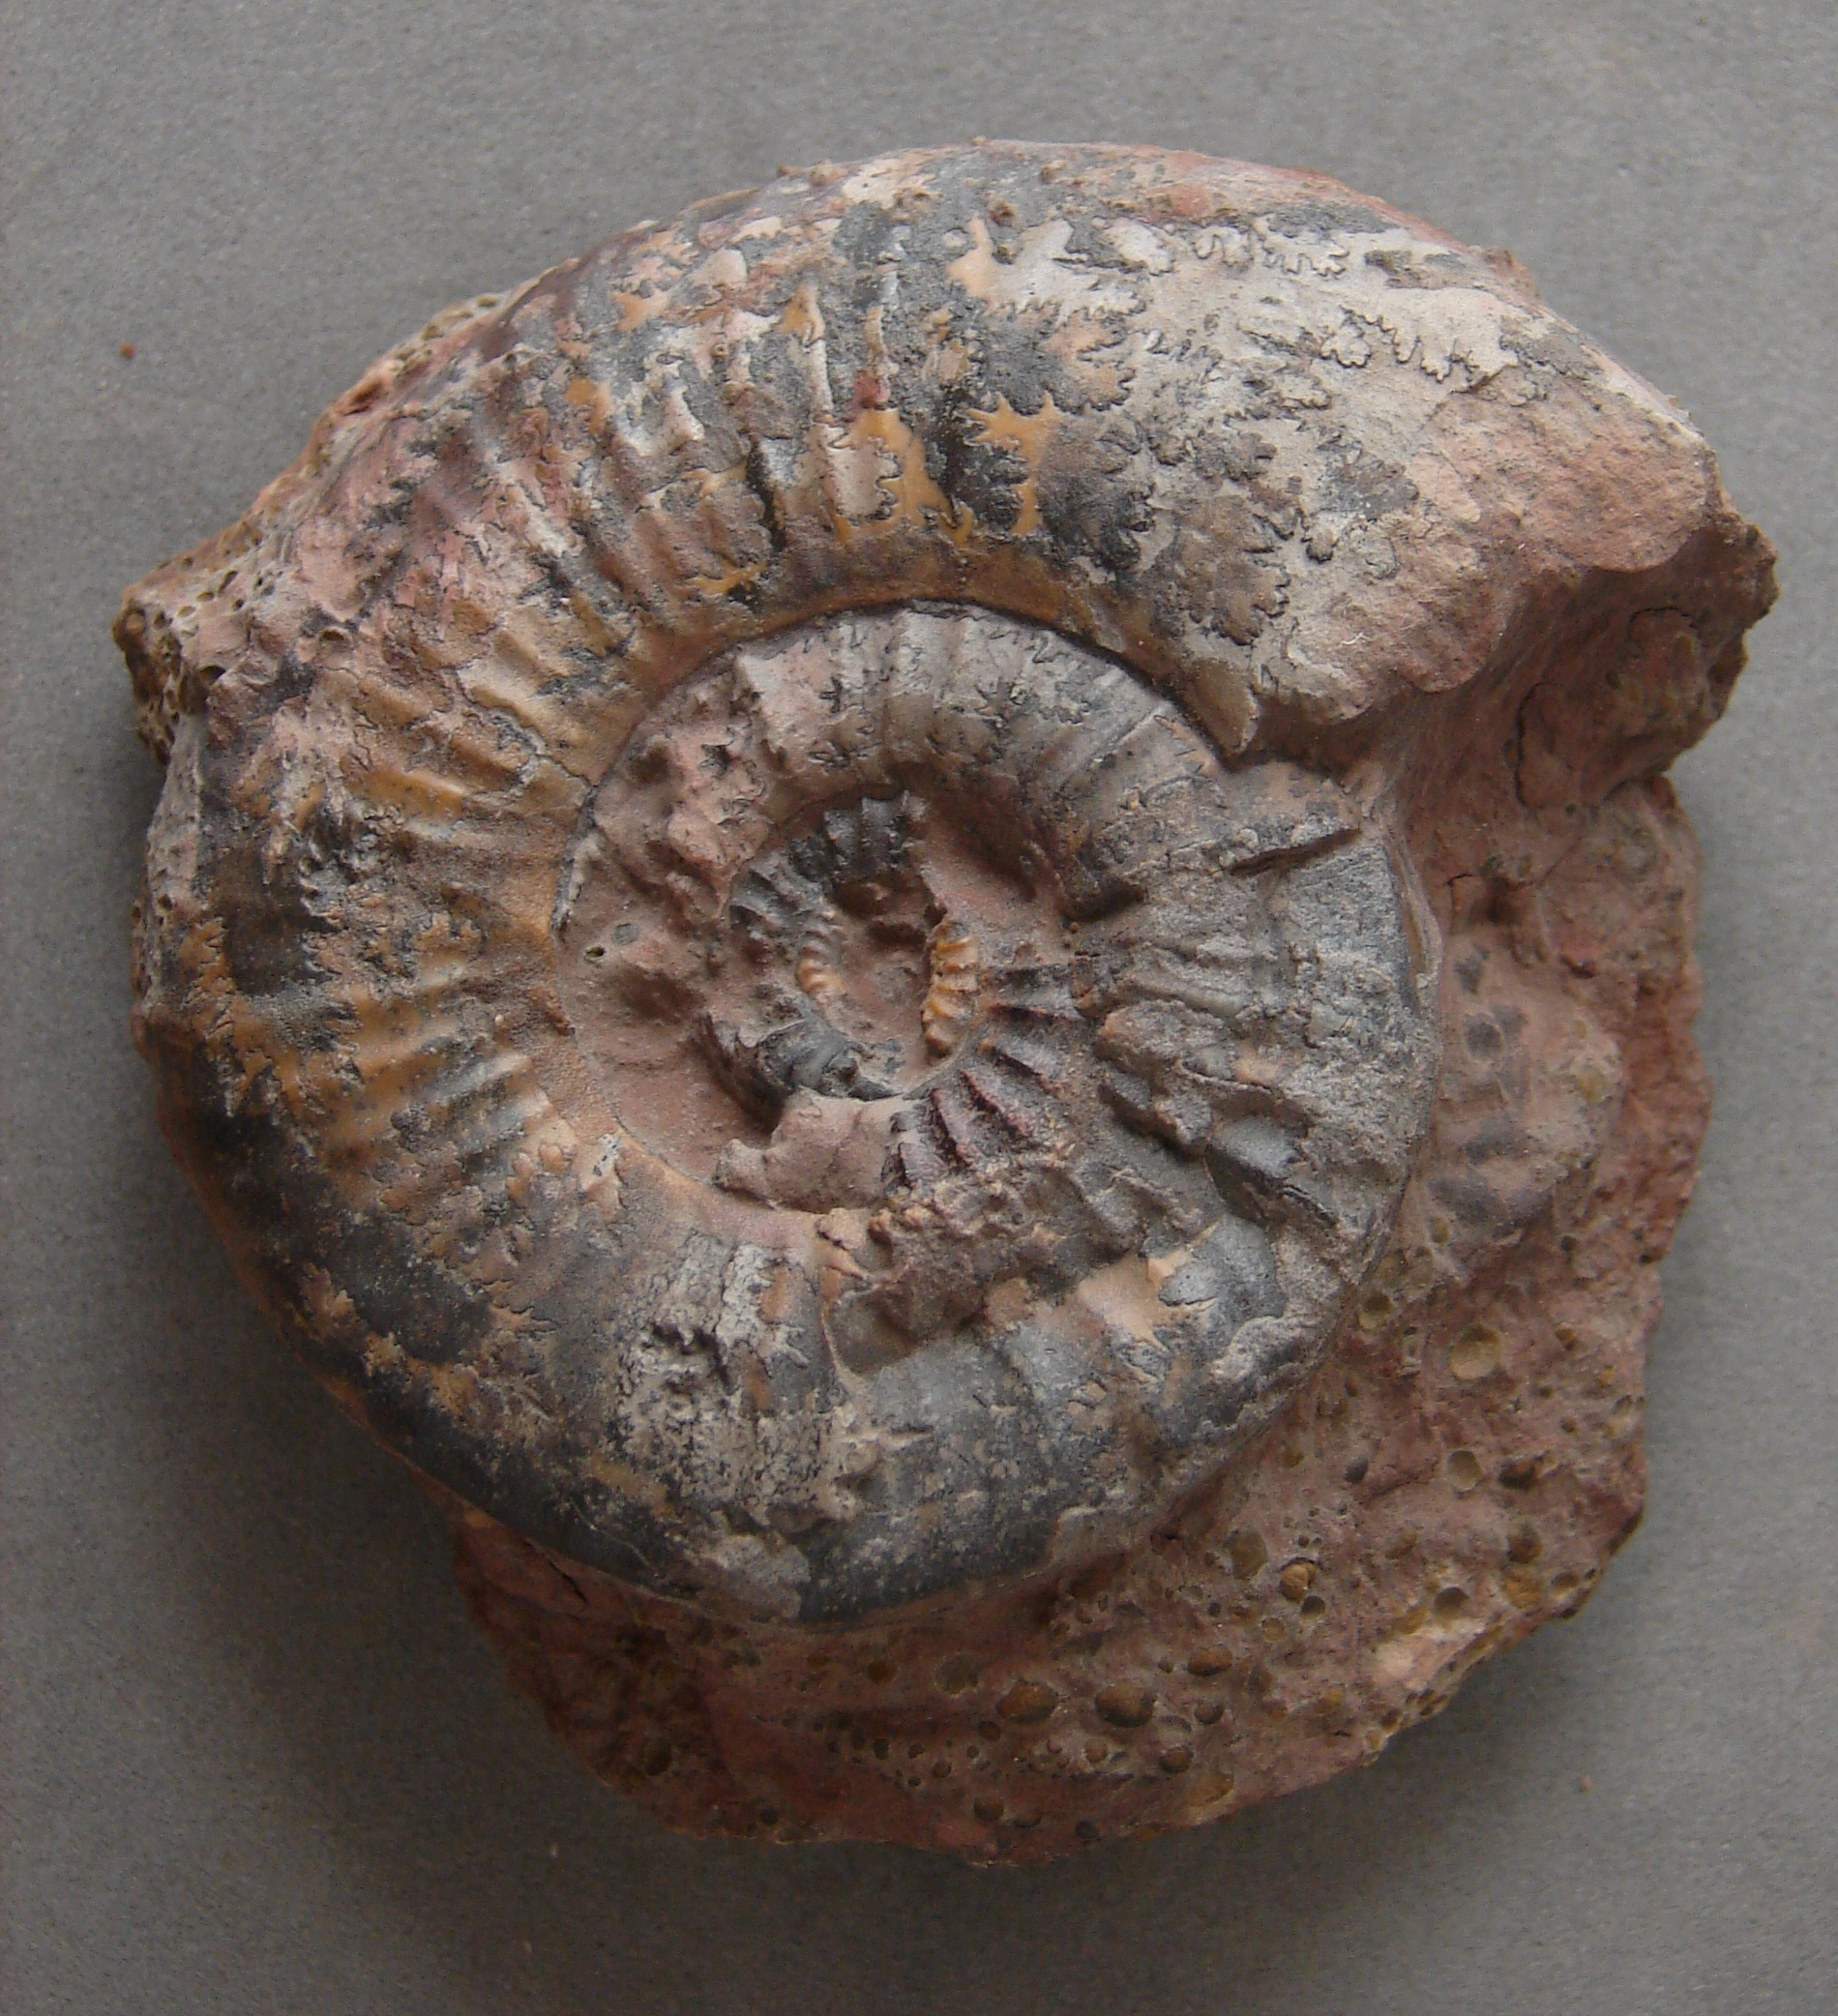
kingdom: Animalia
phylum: Mollusca
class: Cephalopoda
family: Hildoceratidae
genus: Dumortieria
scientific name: Dumortieria pseudoradiosa
